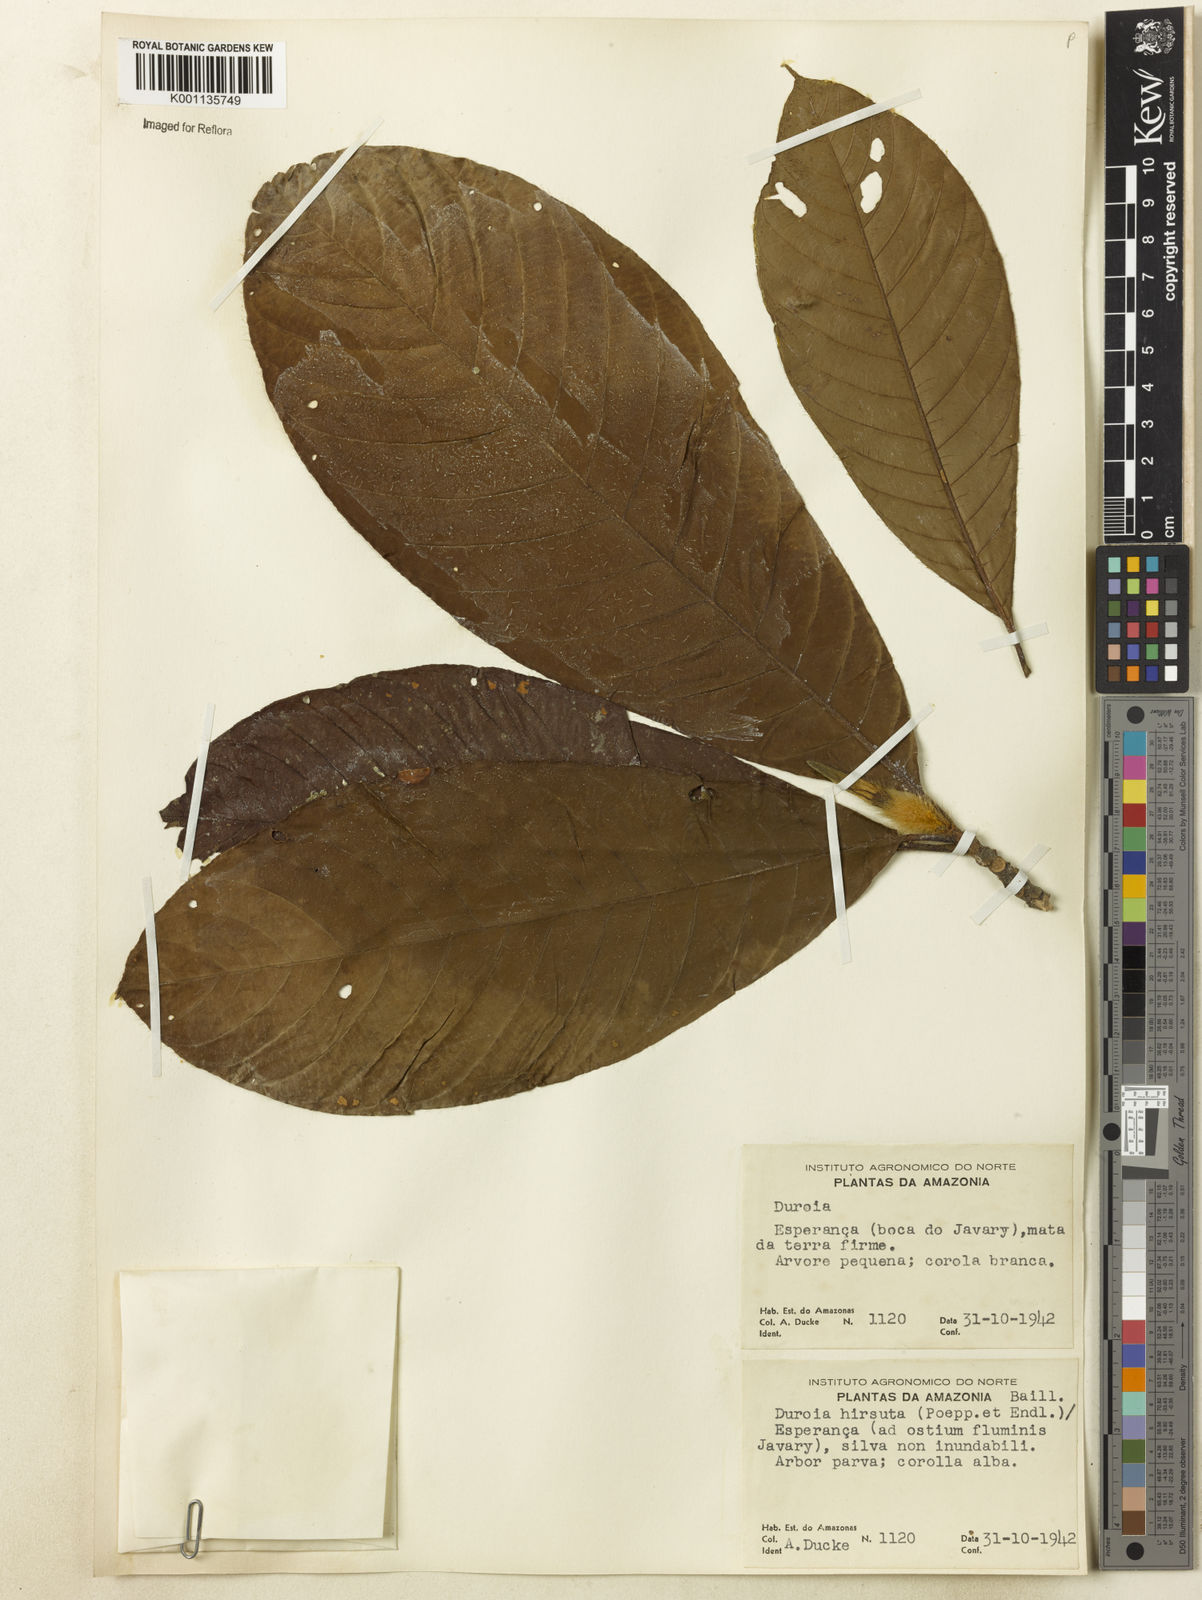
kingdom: Plantae
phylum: Tracheophyta
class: Magnoliopsida
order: Gentianales
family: Rubiaceae
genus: Duroia
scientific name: Duroia hirsuta
